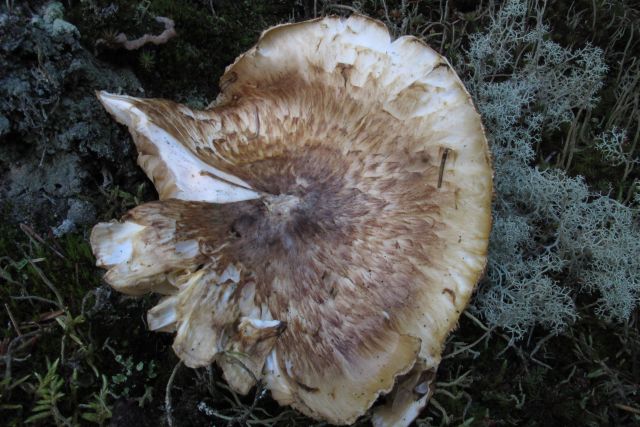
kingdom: Fungi
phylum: Basidiomycota
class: Agaricomycetes
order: Agaricales
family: Tricholomataceae
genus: Tricholoma
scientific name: Tricholoma matsutake
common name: duft-ridderhat
